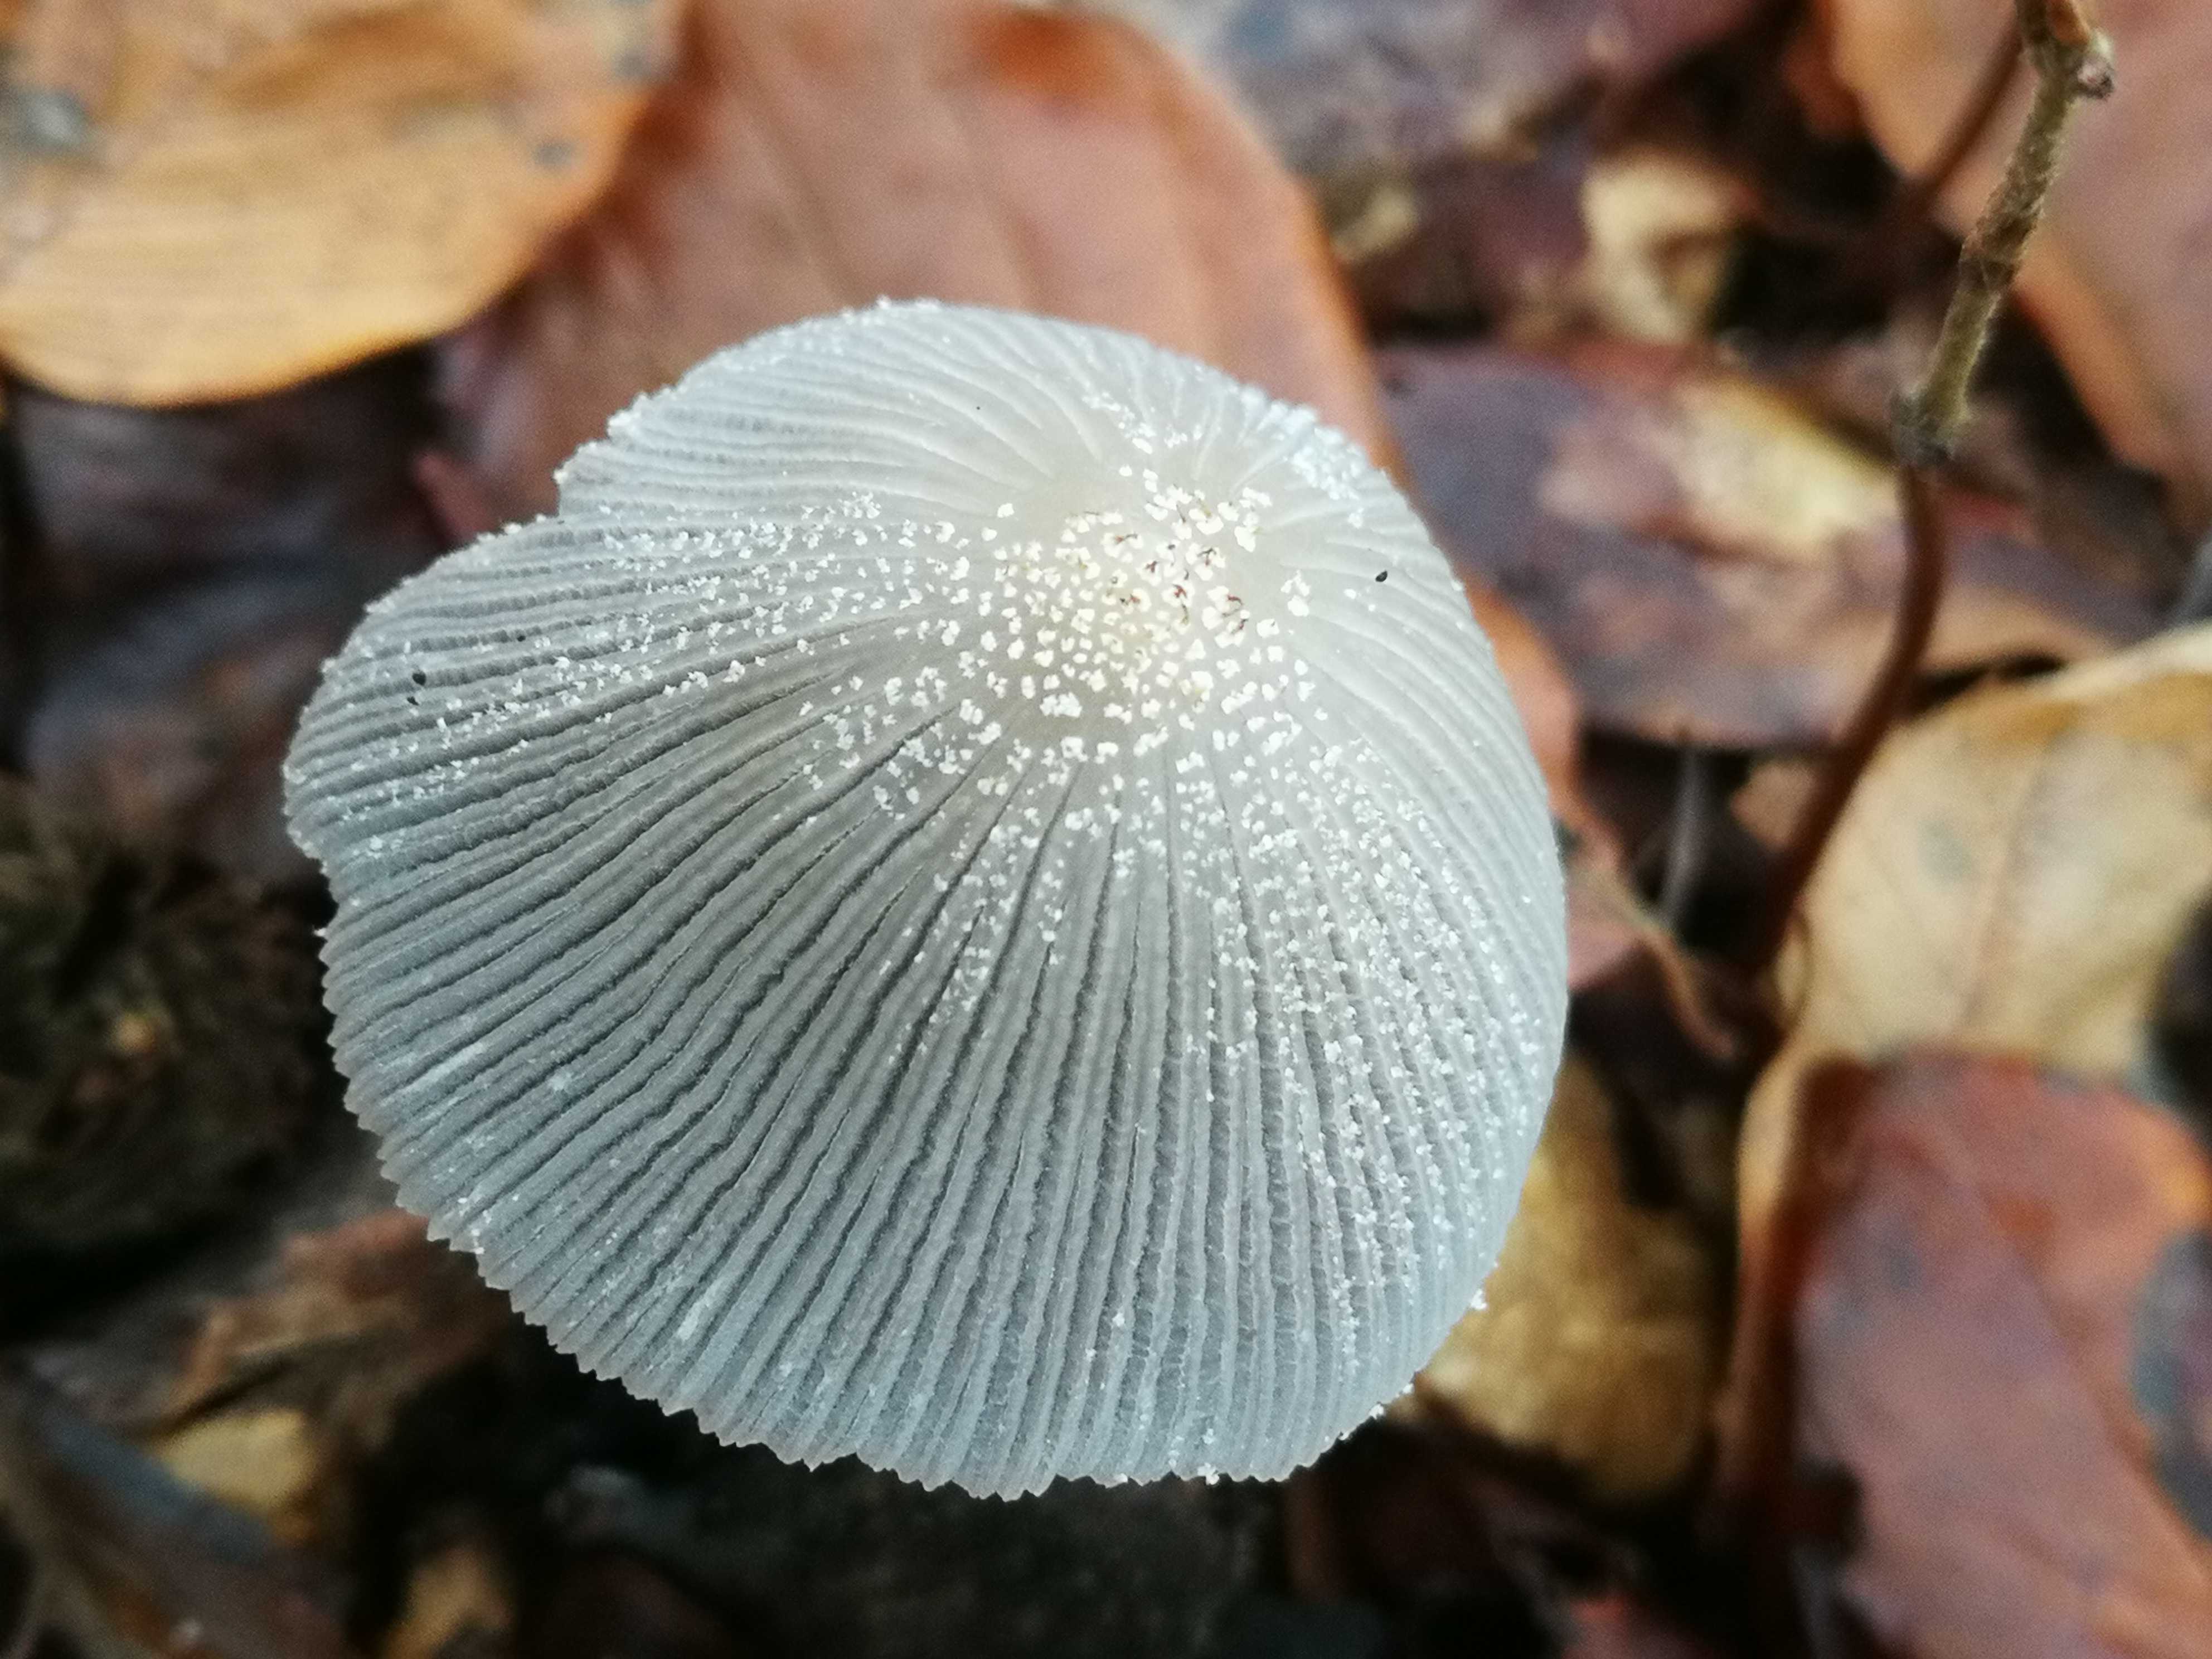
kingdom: Fungi
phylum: Basidiomycota
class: Agaricomycetes
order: Agaricales
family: Psathyrellaceae
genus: Coprinellus
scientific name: Coprinellus
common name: blækhat
